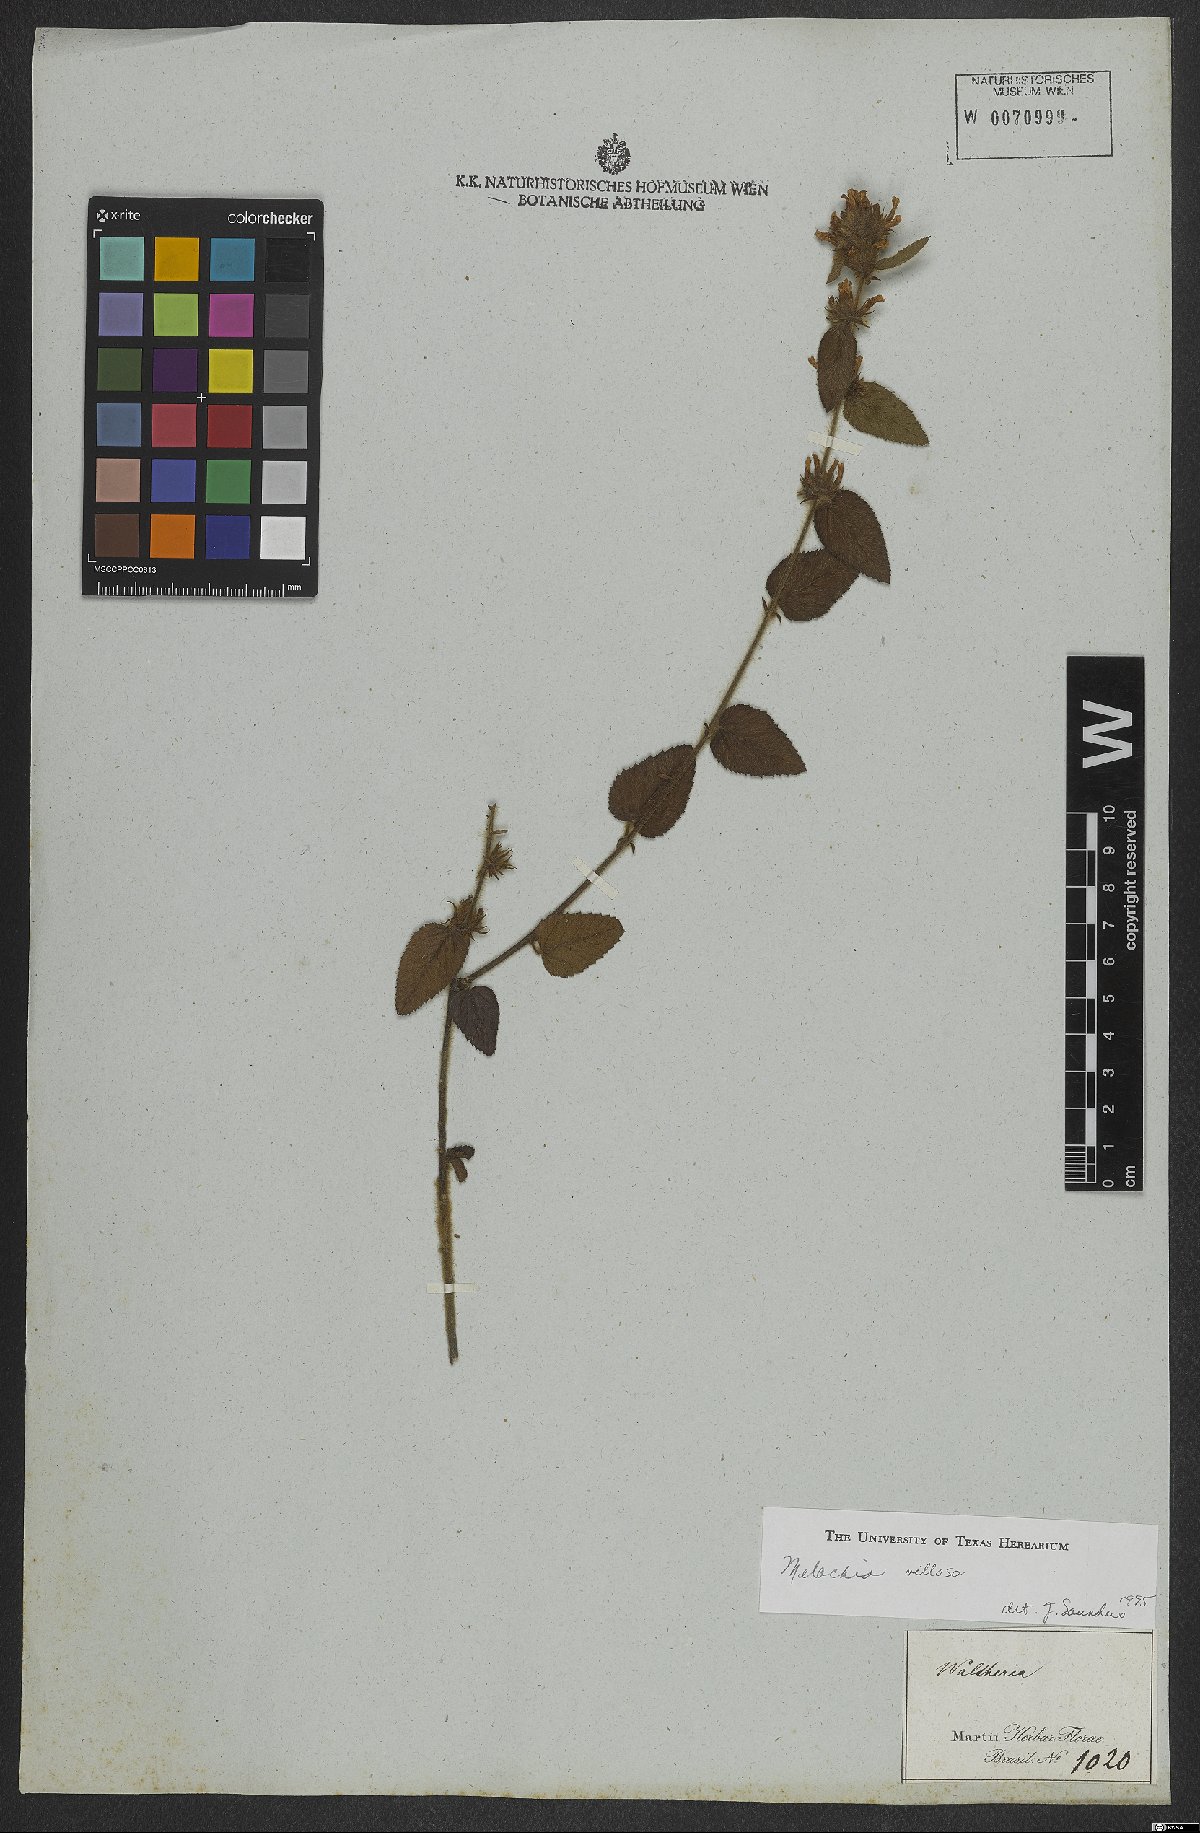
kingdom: Plantae
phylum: Tracheophyta
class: Magnoliopsida
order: Malvales
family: Malvaceae
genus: Melochia
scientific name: Melochia spicata
